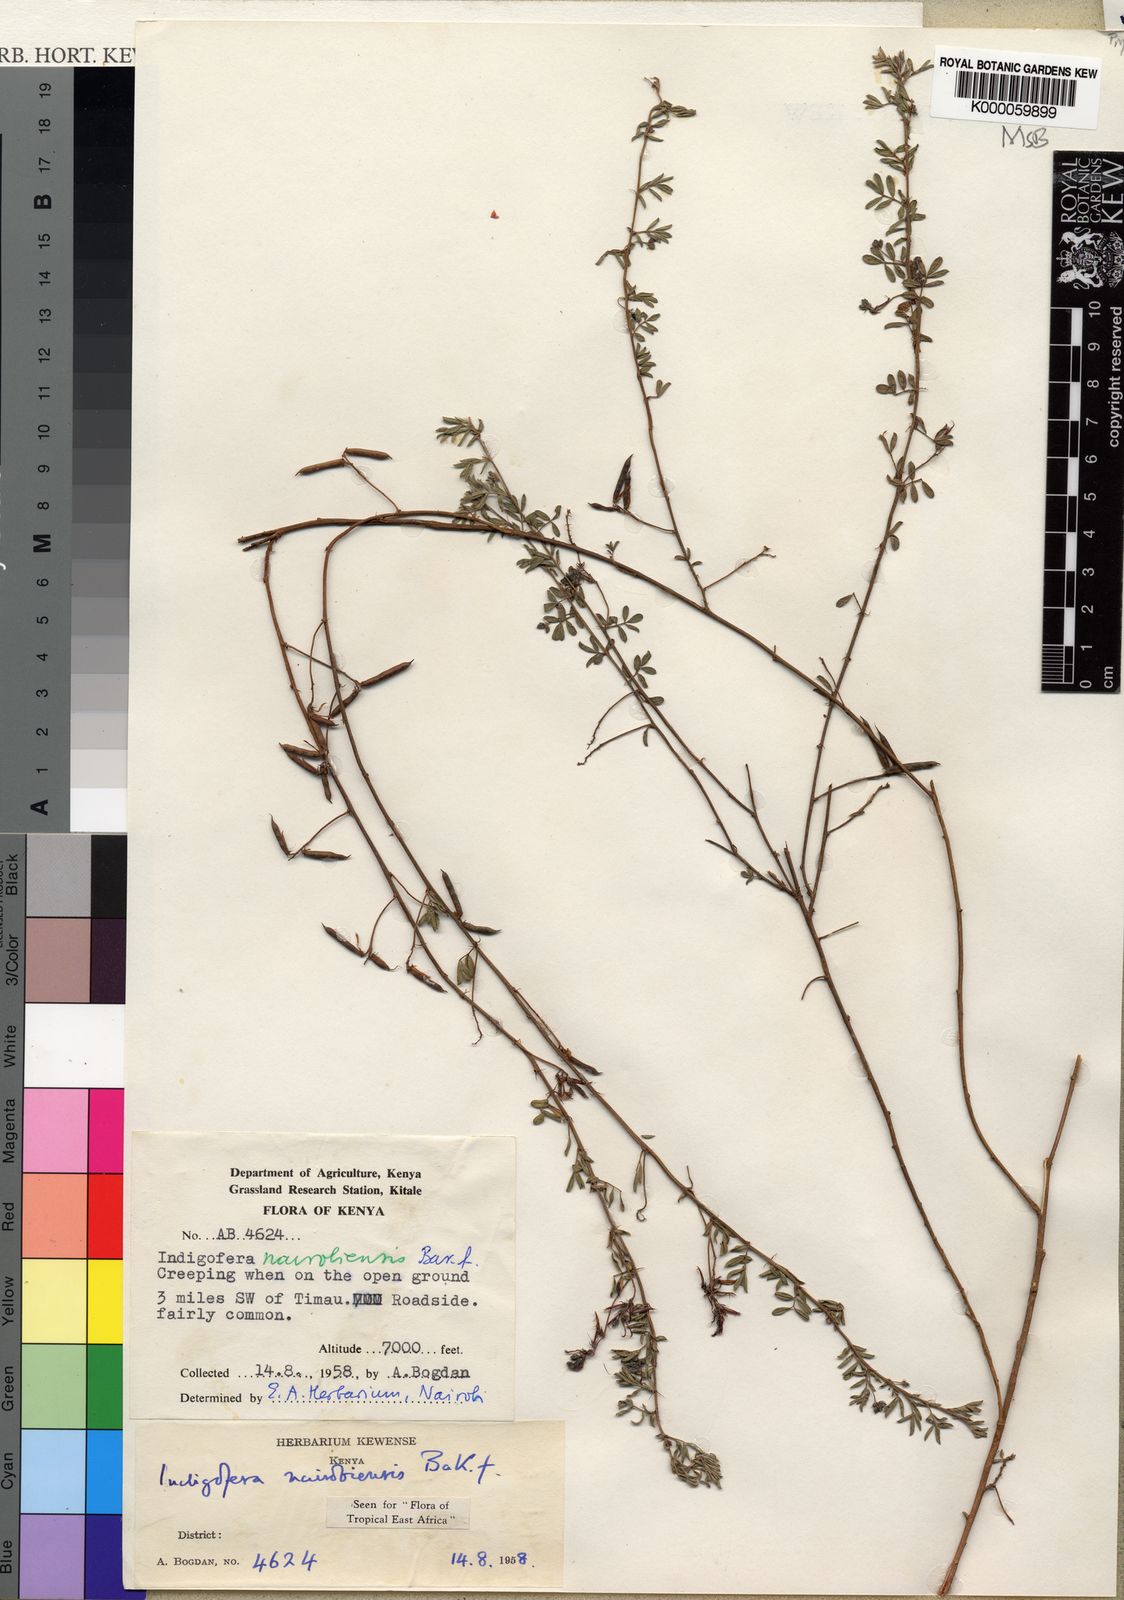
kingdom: Plantae
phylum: Tracheophyta
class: Magnoliopsida
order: Fabales
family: Fabaceae
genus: Indigofera
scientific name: Indigofera nairobiensis
